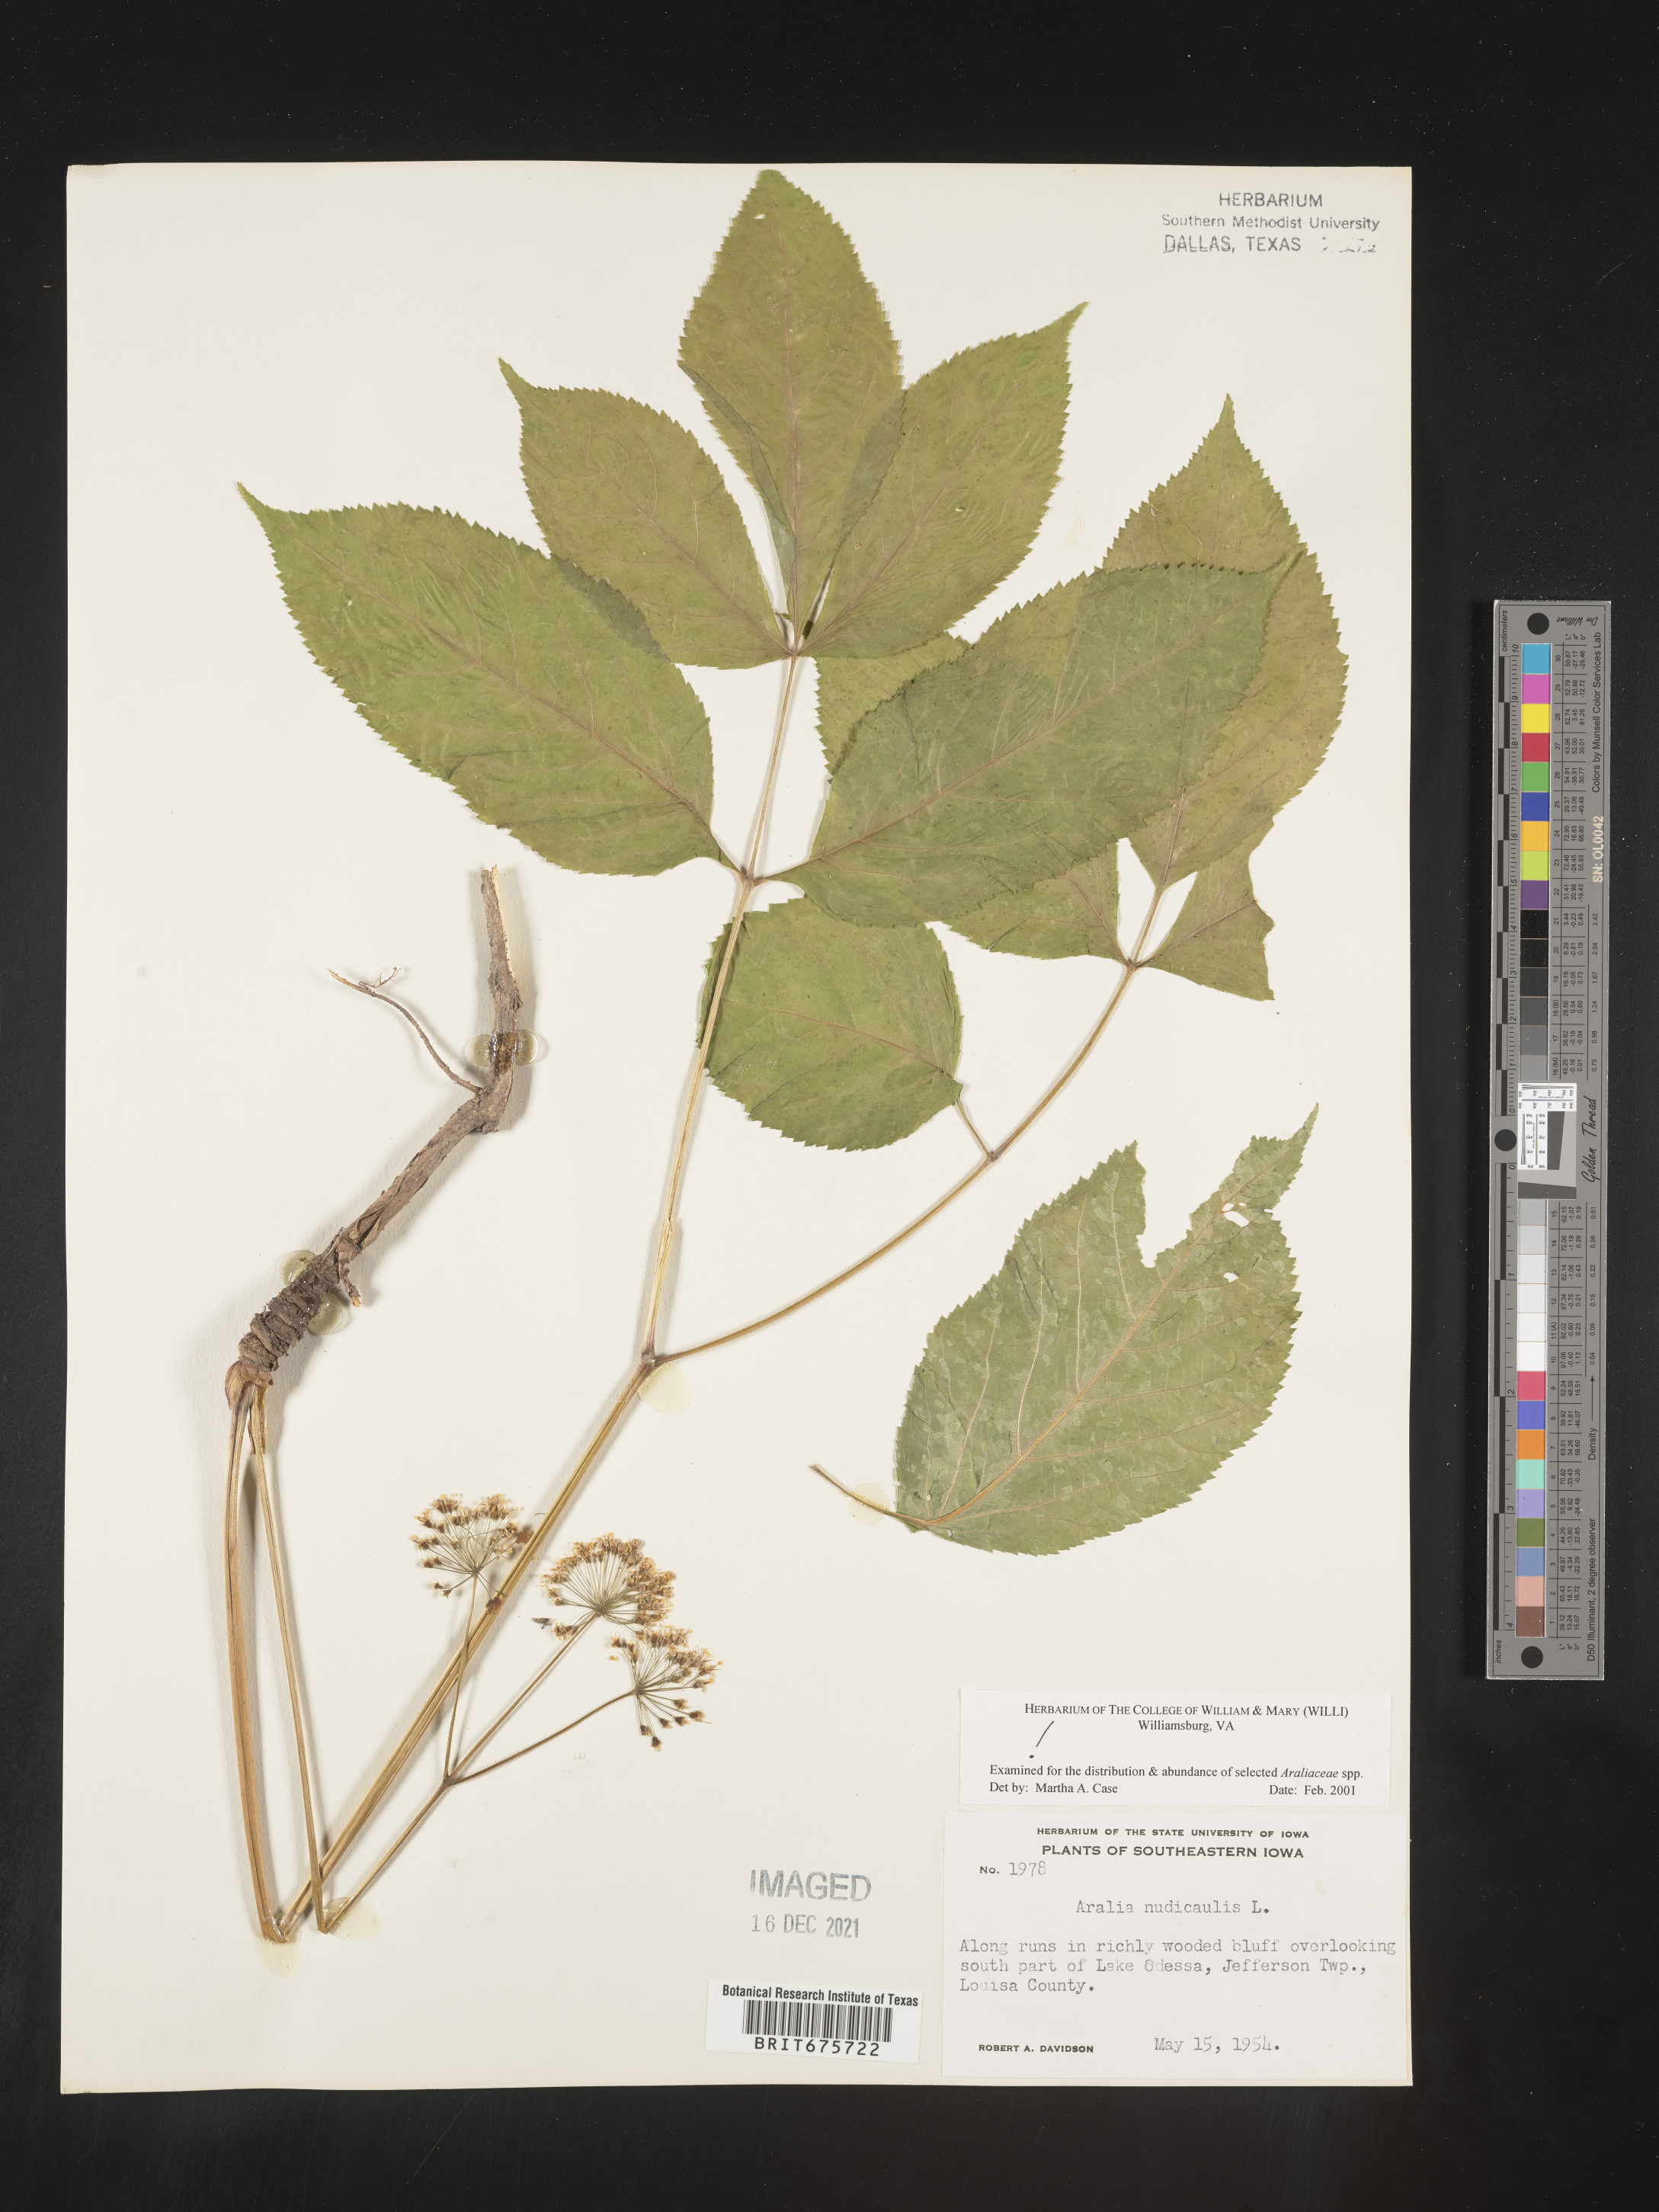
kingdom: Plantae
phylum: Tracheophyta
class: Magnoliopsida
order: Apiales
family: Araliaceae
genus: Aralia
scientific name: Aralia nudicaulis
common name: Wild sarsaparilla
